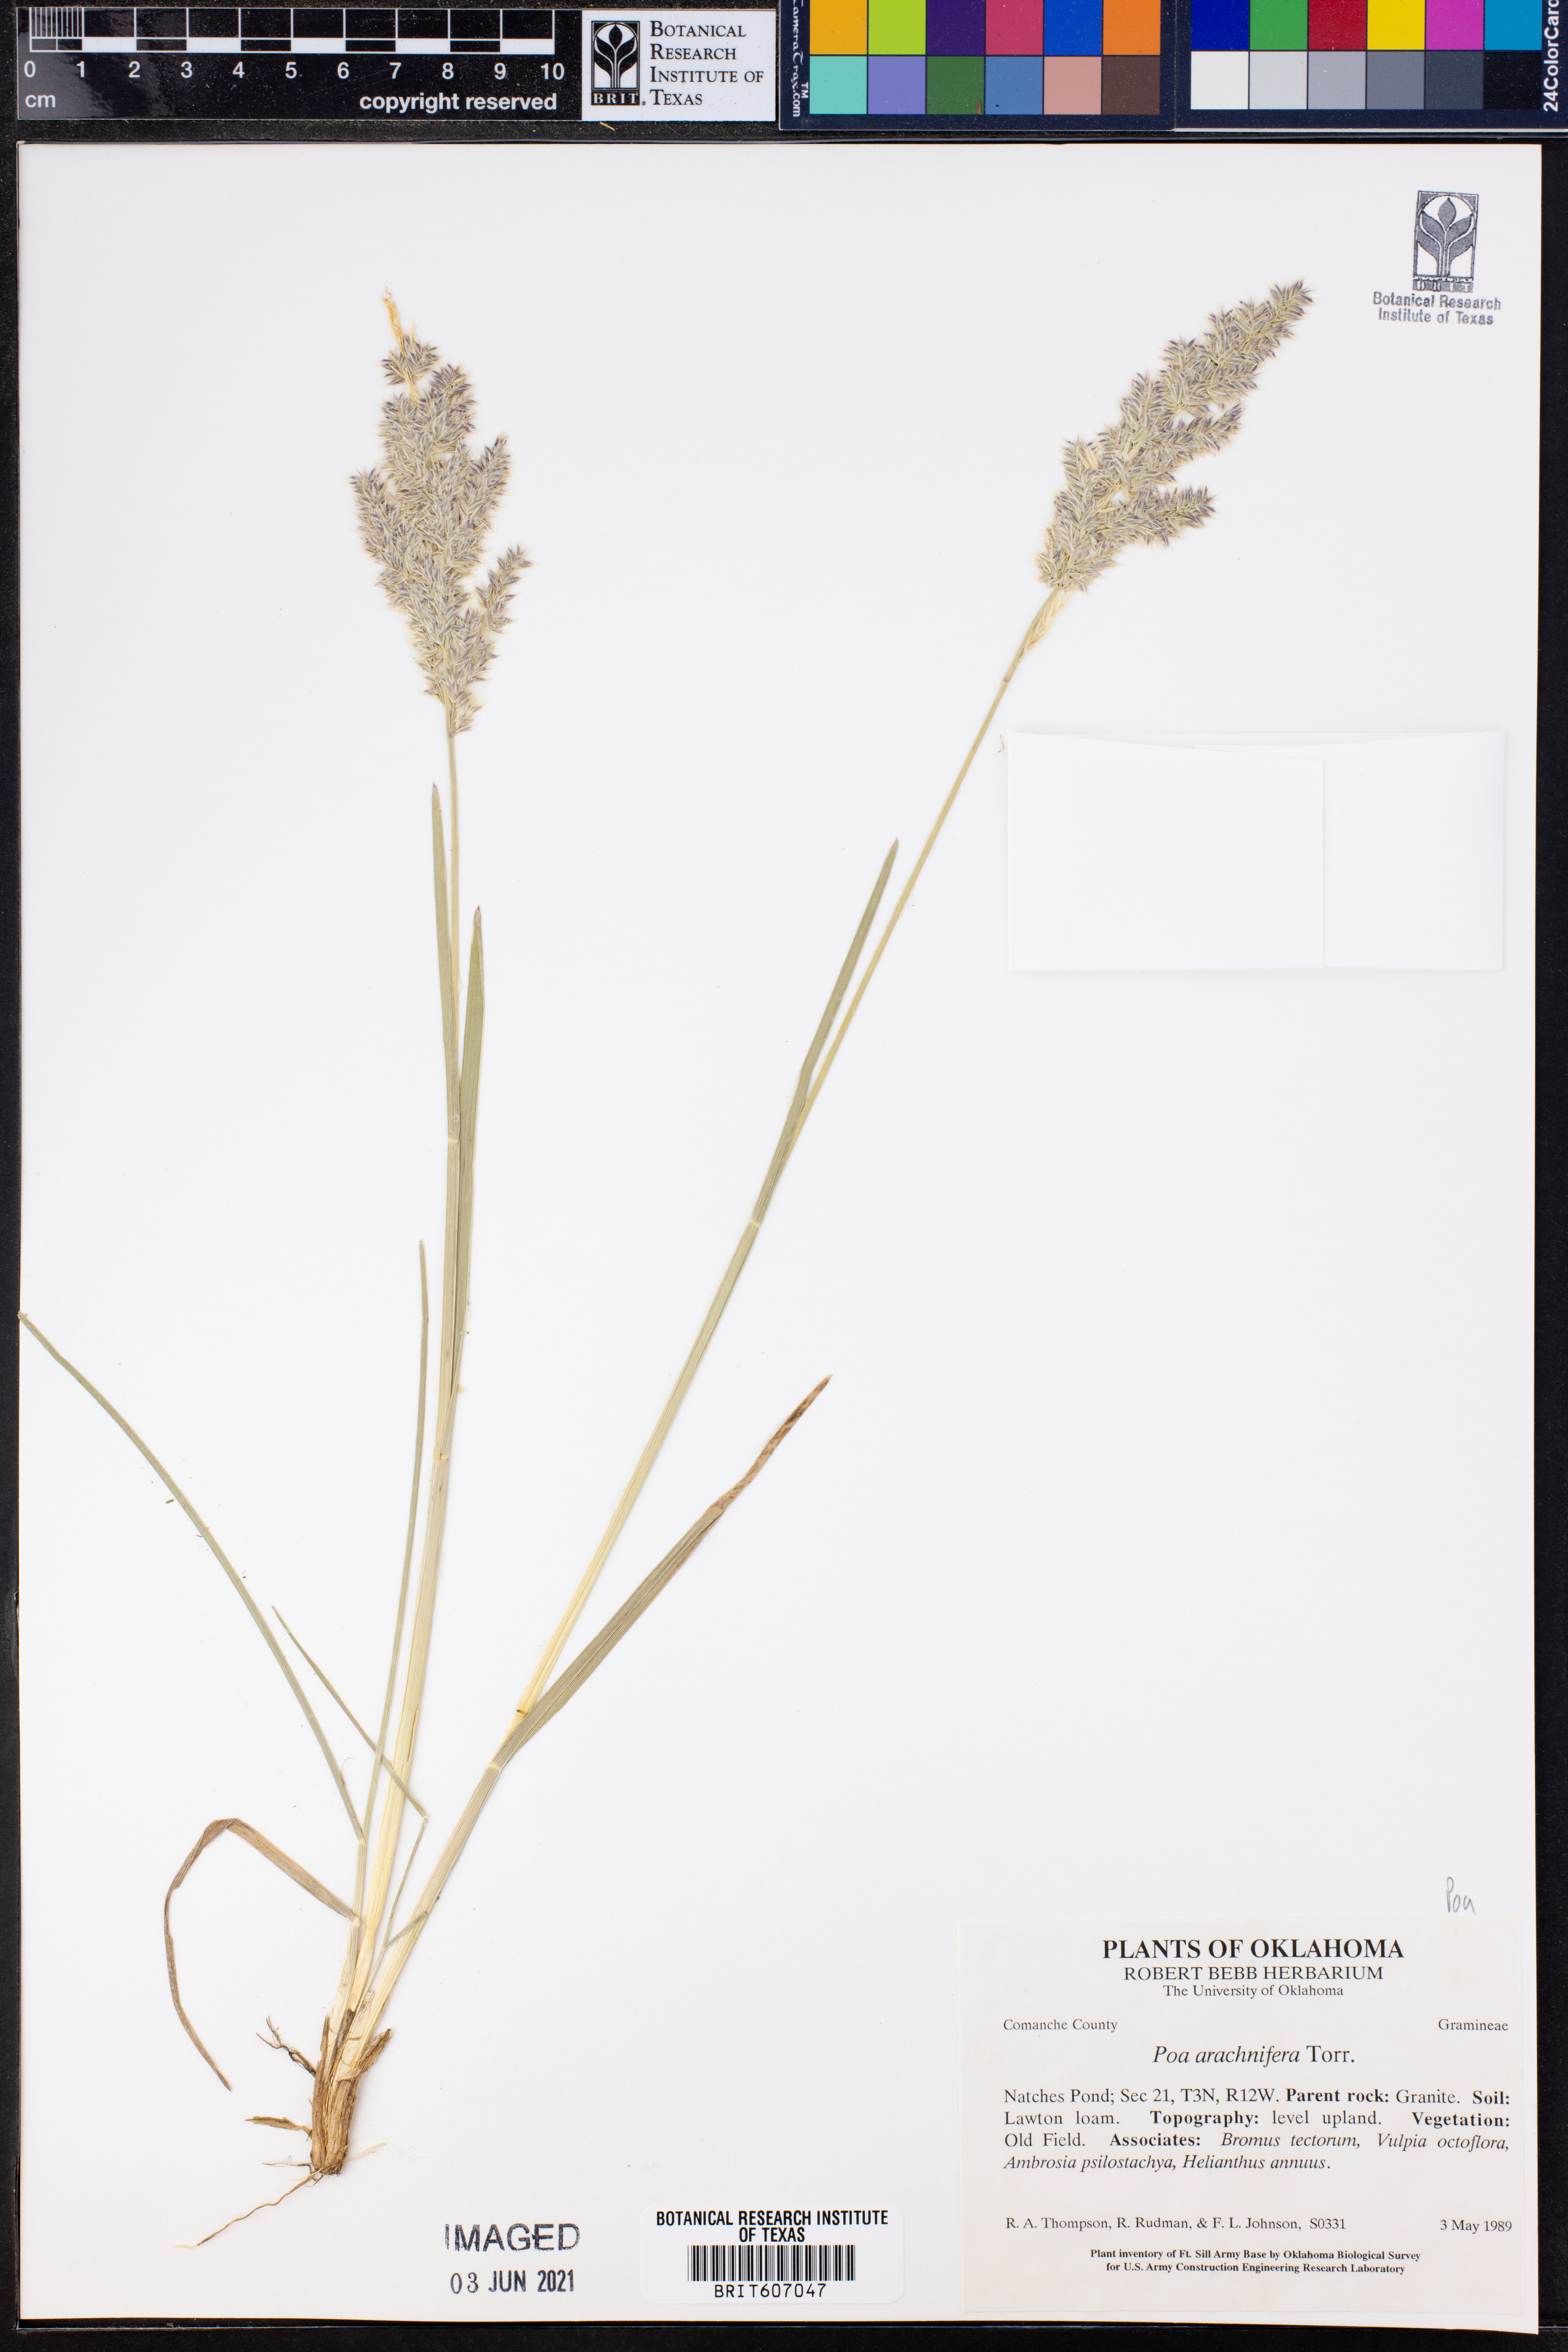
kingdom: Plantae
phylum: Tracheophyta
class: Liliopsida
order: Poales
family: Poaceae
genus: Poa
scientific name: Poa arachnifera
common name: Texas bluegrass
